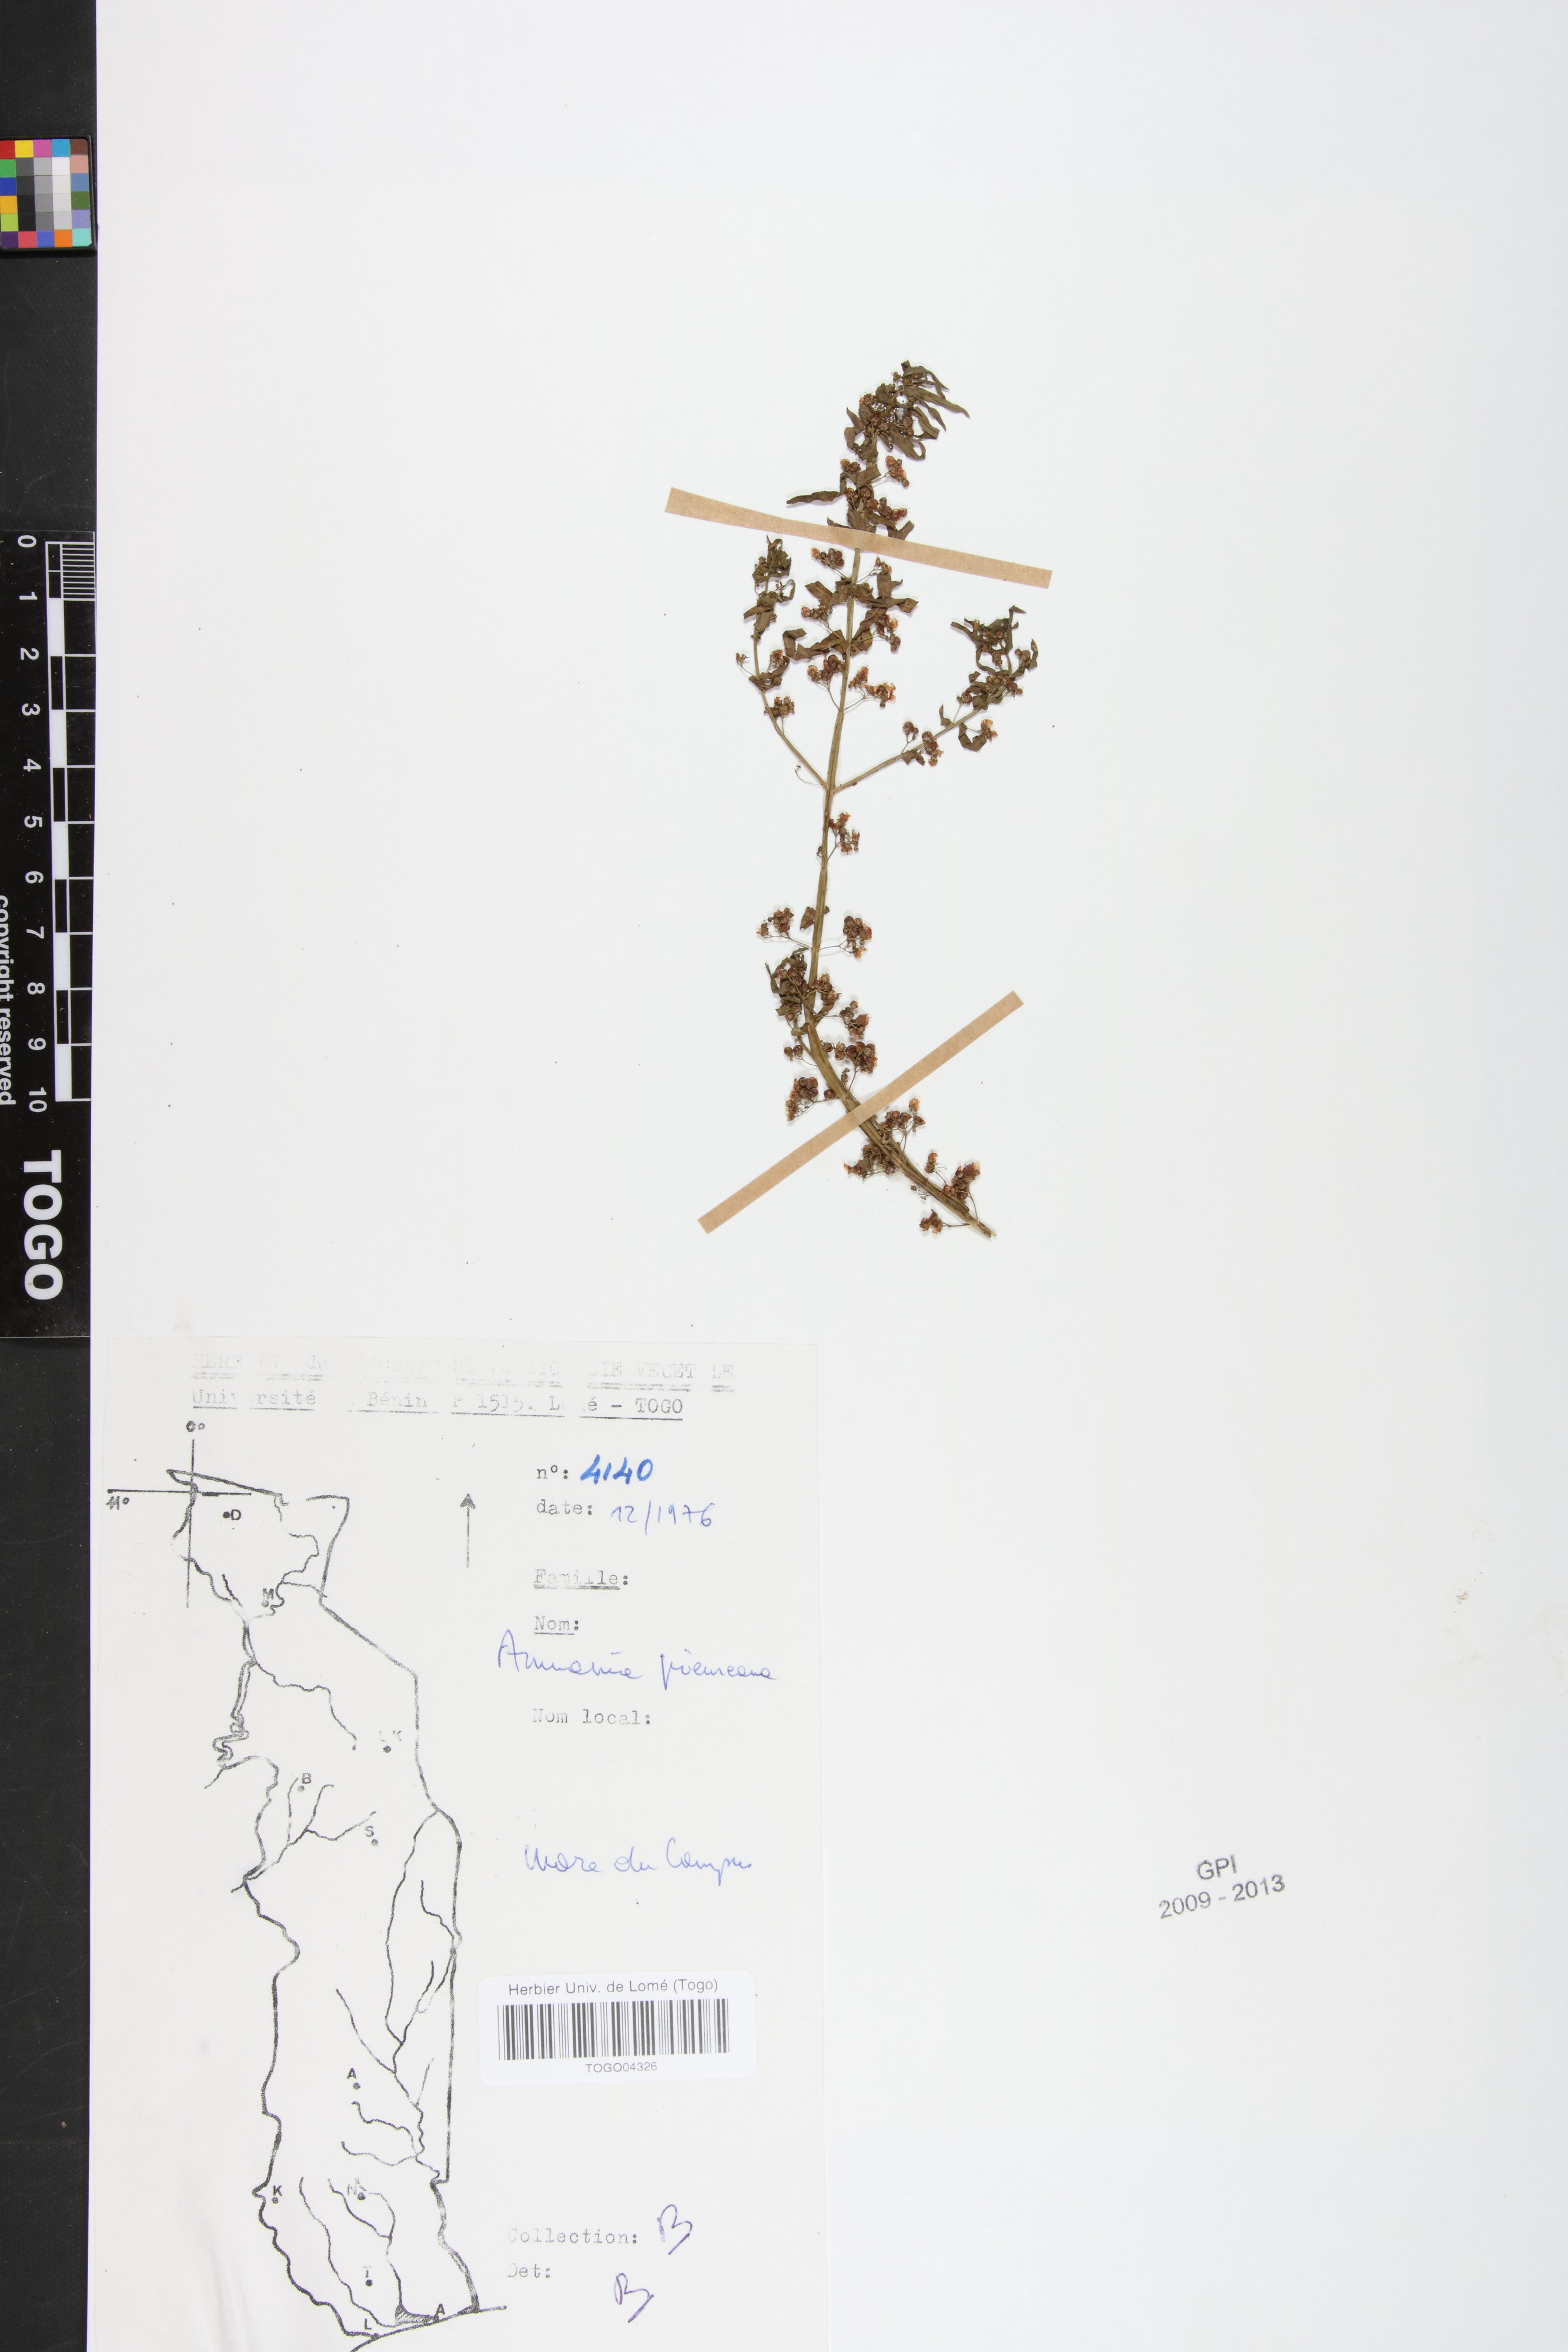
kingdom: Plantae
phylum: Tracheophyta
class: Magnoliopsida
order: Myrtales
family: Lythraceae
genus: Ammannia
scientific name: Ammannia prieureana
